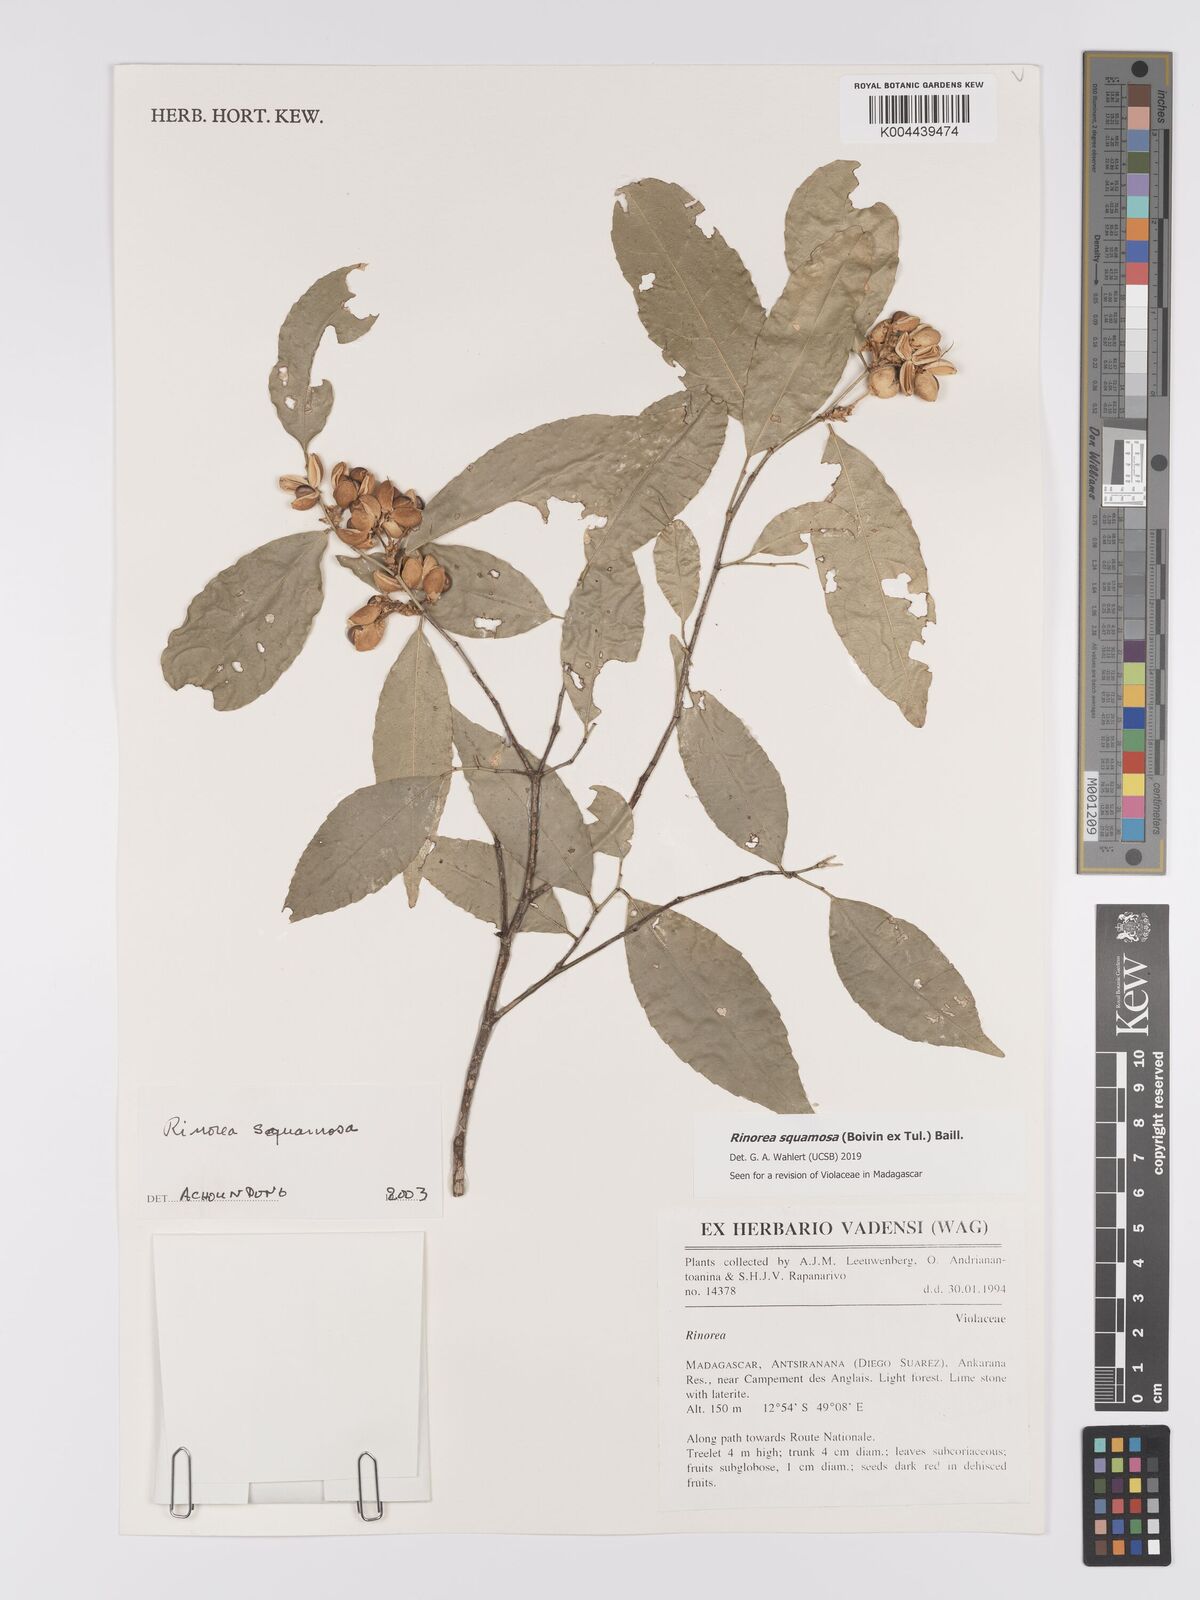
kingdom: Plantae
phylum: Tracheophyta
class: Magnoliopsida
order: Malpighiales
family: Violaceae
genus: Rinorea
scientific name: Rinorea squamosa
